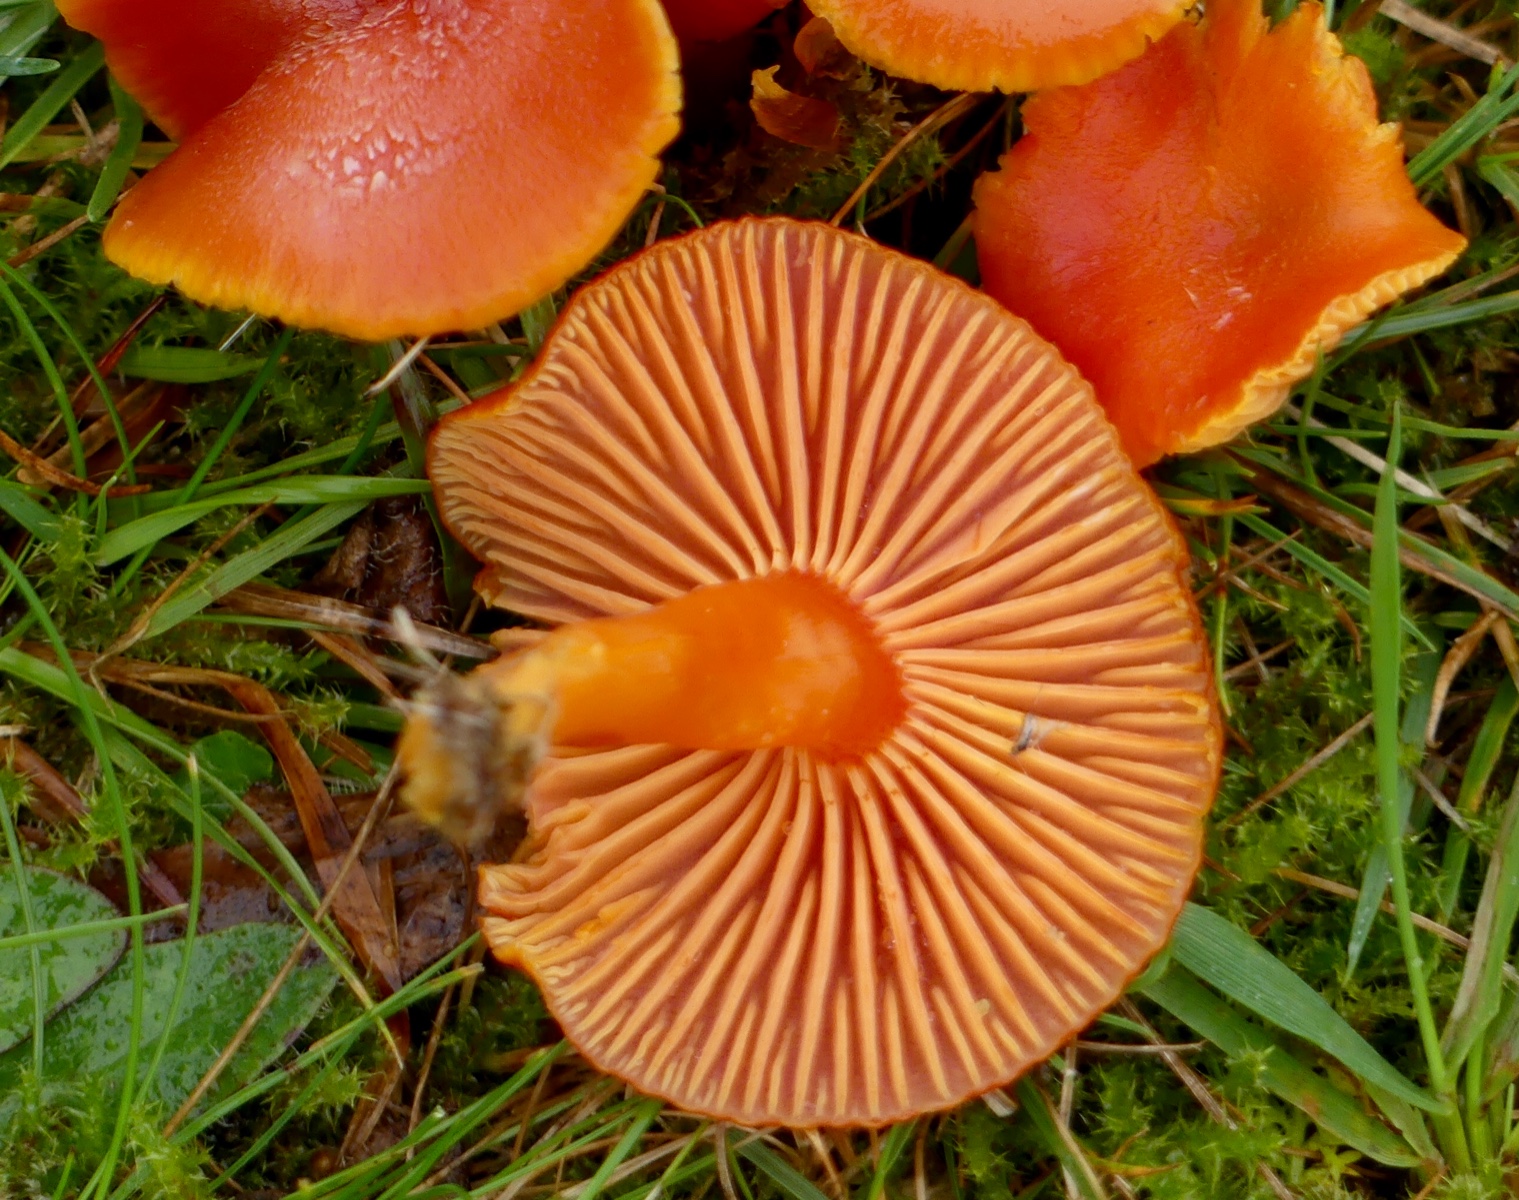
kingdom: Fungi
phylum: Basidiomycota
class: Agaricomycetes
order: Agaricales
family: Hygrophoraceae
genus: Hygrocybe
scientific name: Hygrocybe miniata
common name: mønje-vokshat
